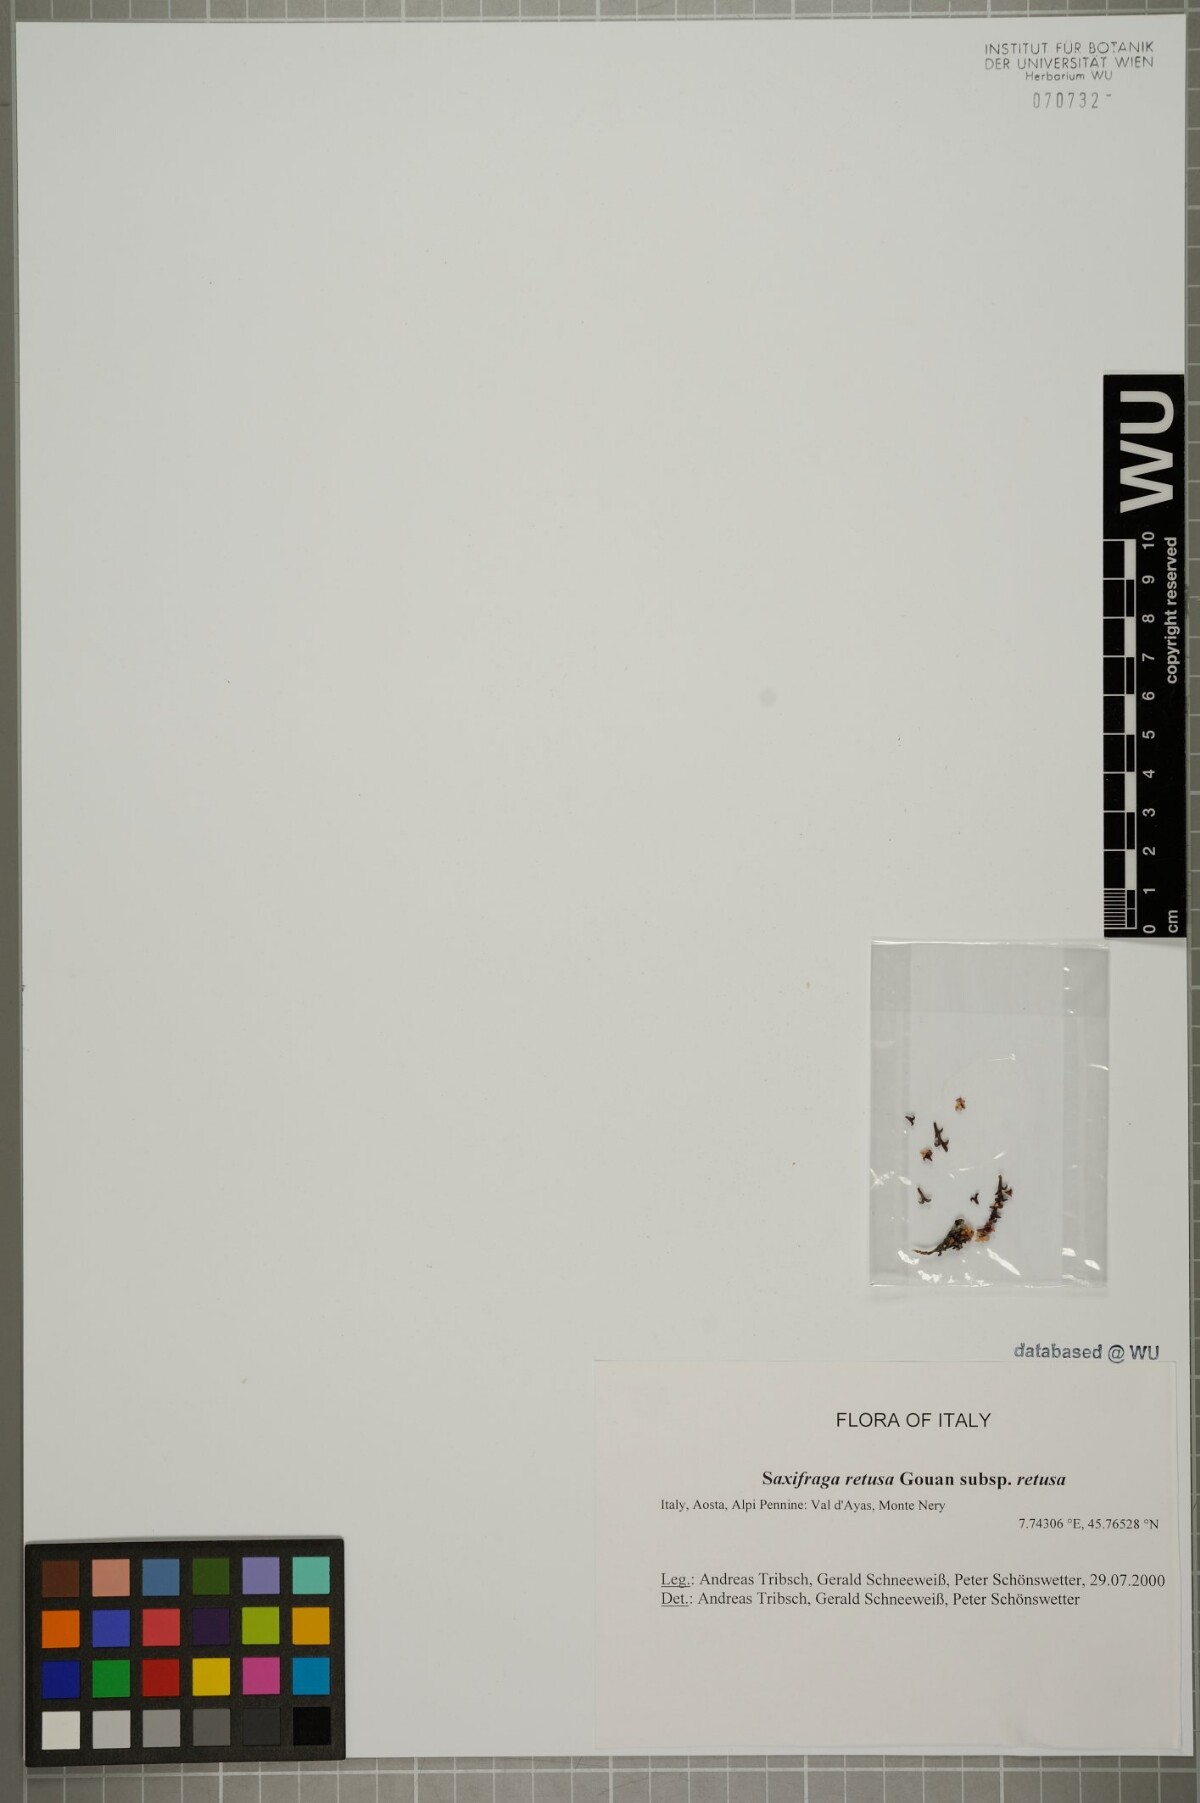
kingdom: Plantae
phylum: Tracheophyta
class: Magnoliopsida
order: Saxifragales
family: Saxifragaceae
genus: Saxifraga
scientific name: Saxifraga retusa
